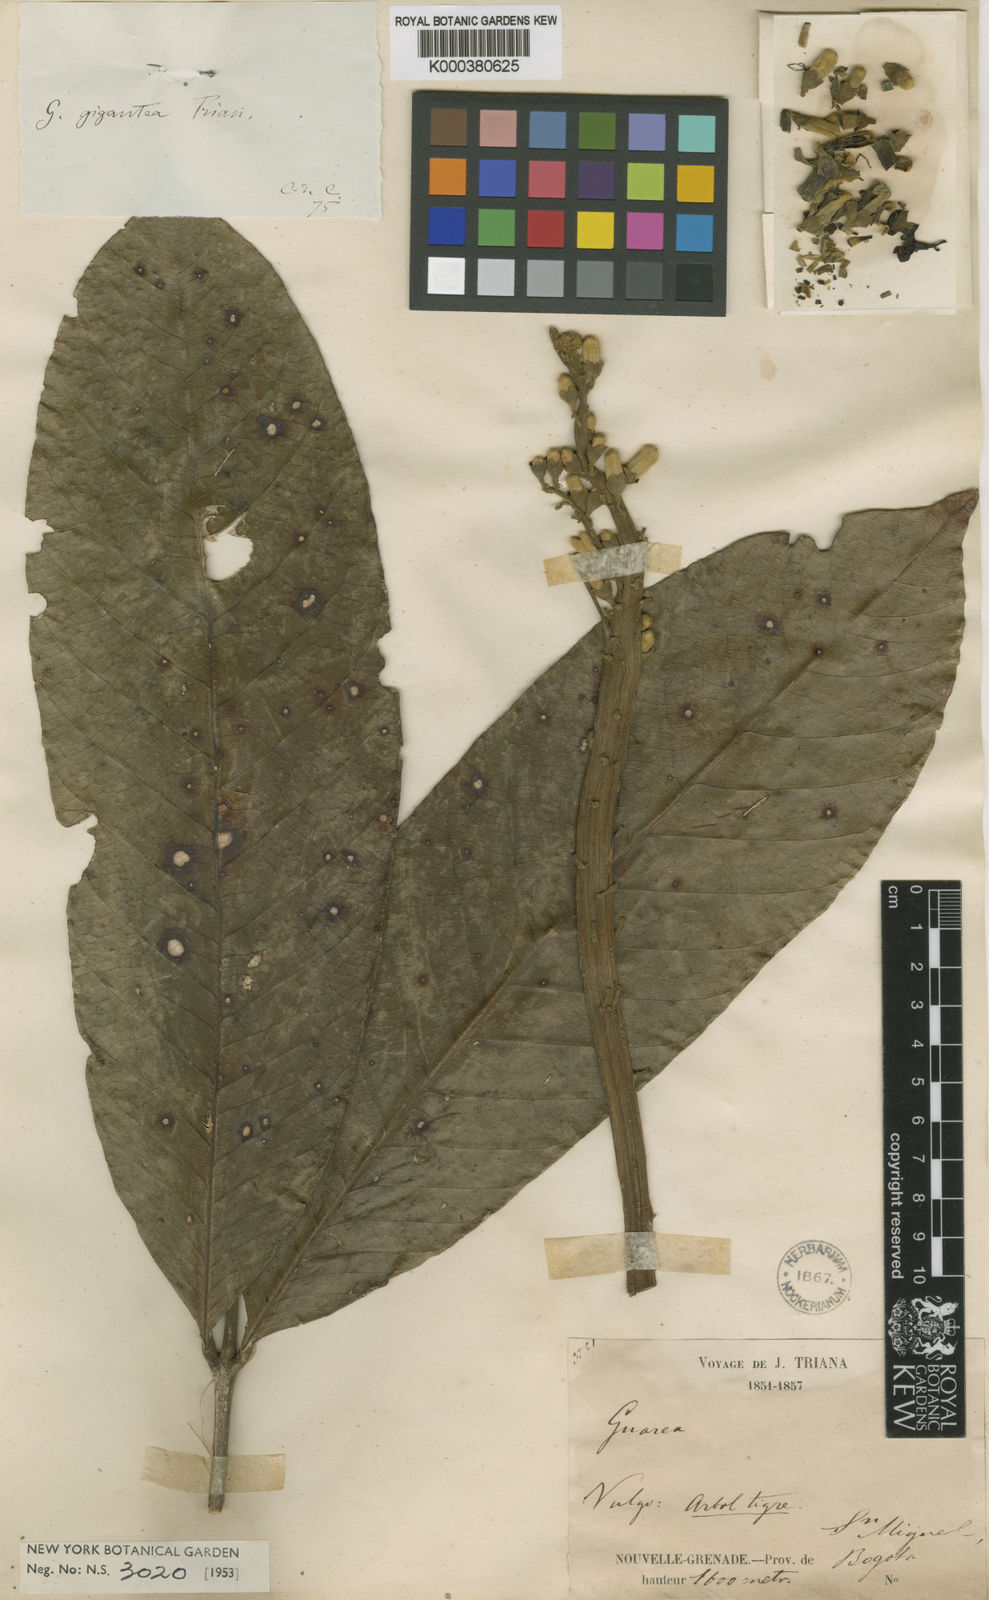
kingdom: Plantae
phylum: Tracheophyta
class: Magnoliopsida
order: Sapindales
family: Meliaceae
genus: Guarea
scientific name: Guarea guidonia
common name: American muskwood
